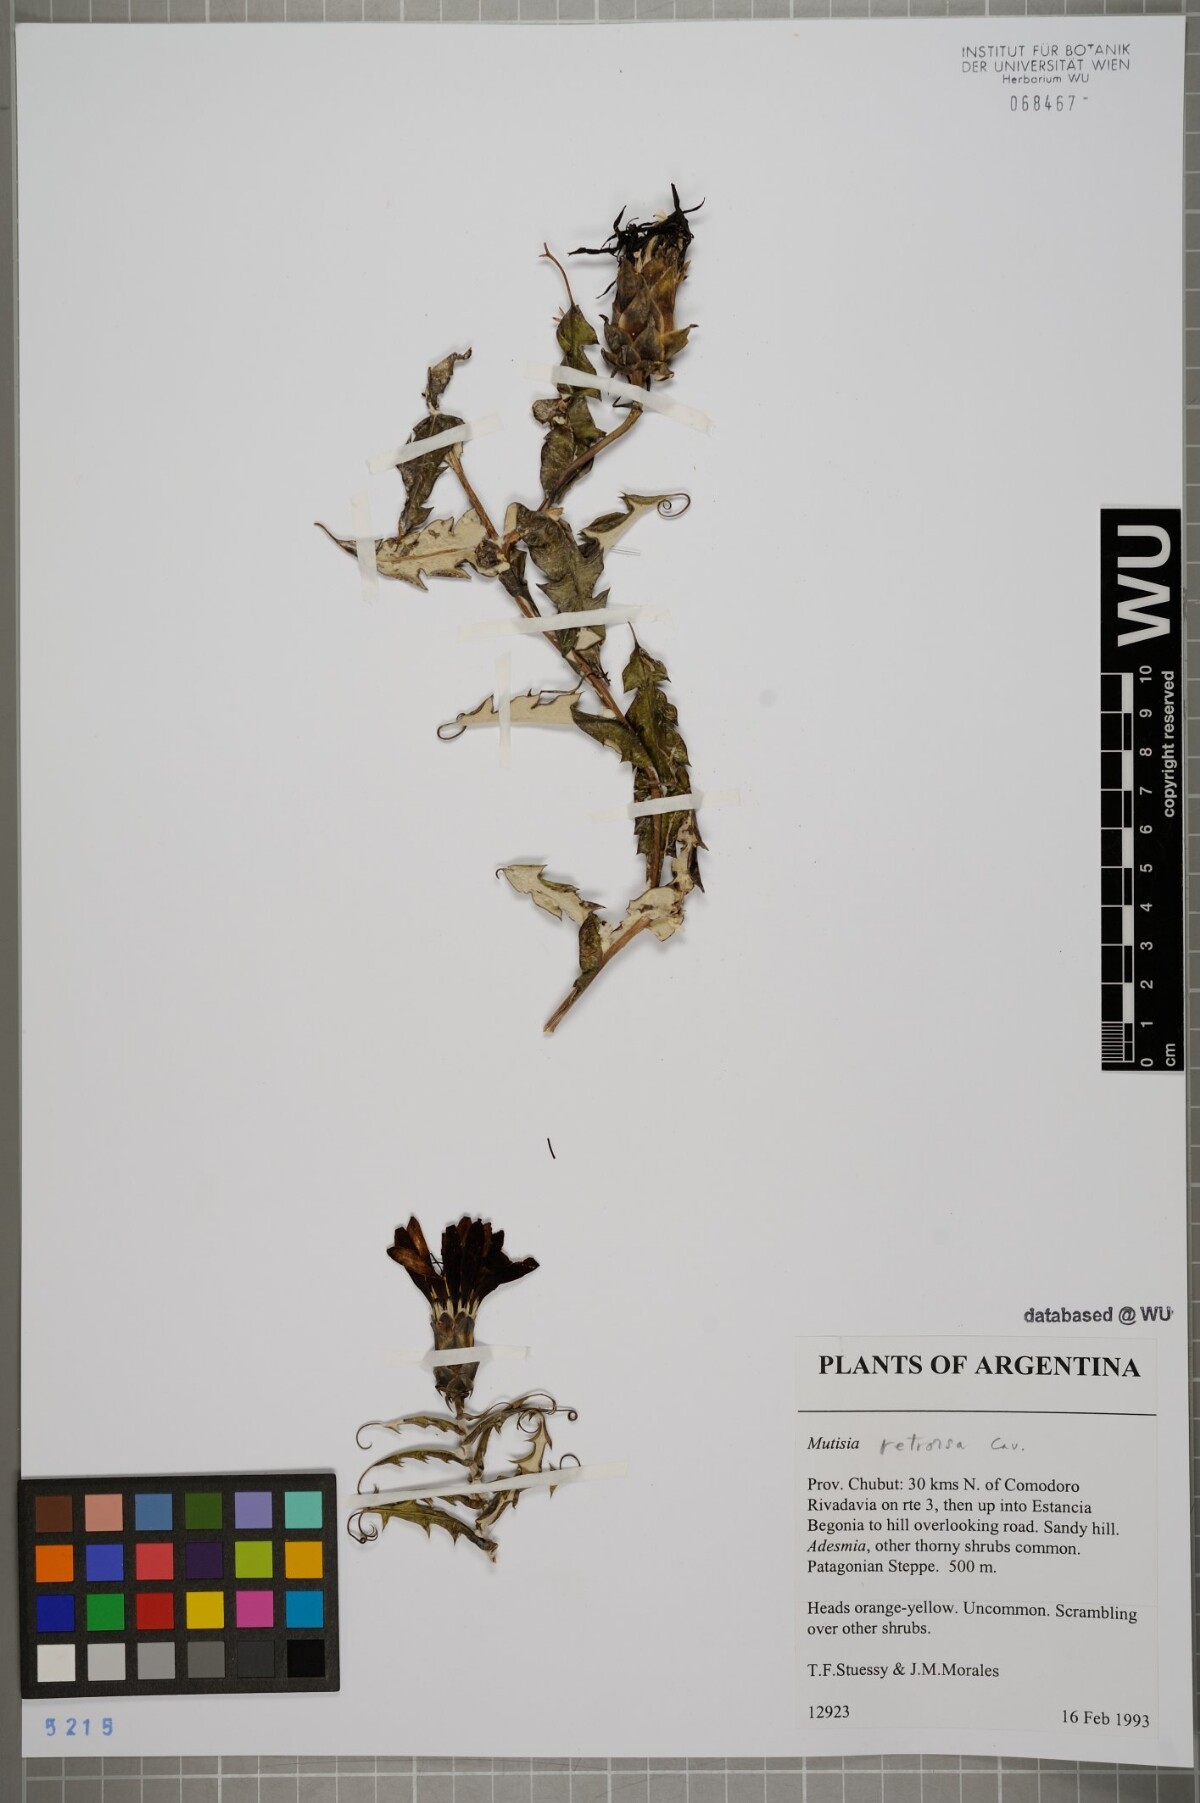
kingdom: Plantae
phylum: Tracheophyta
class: Magnoliopsida
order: Asterales
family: Asteraceae
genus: Mutisia
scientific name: Mutisia retrorsa
